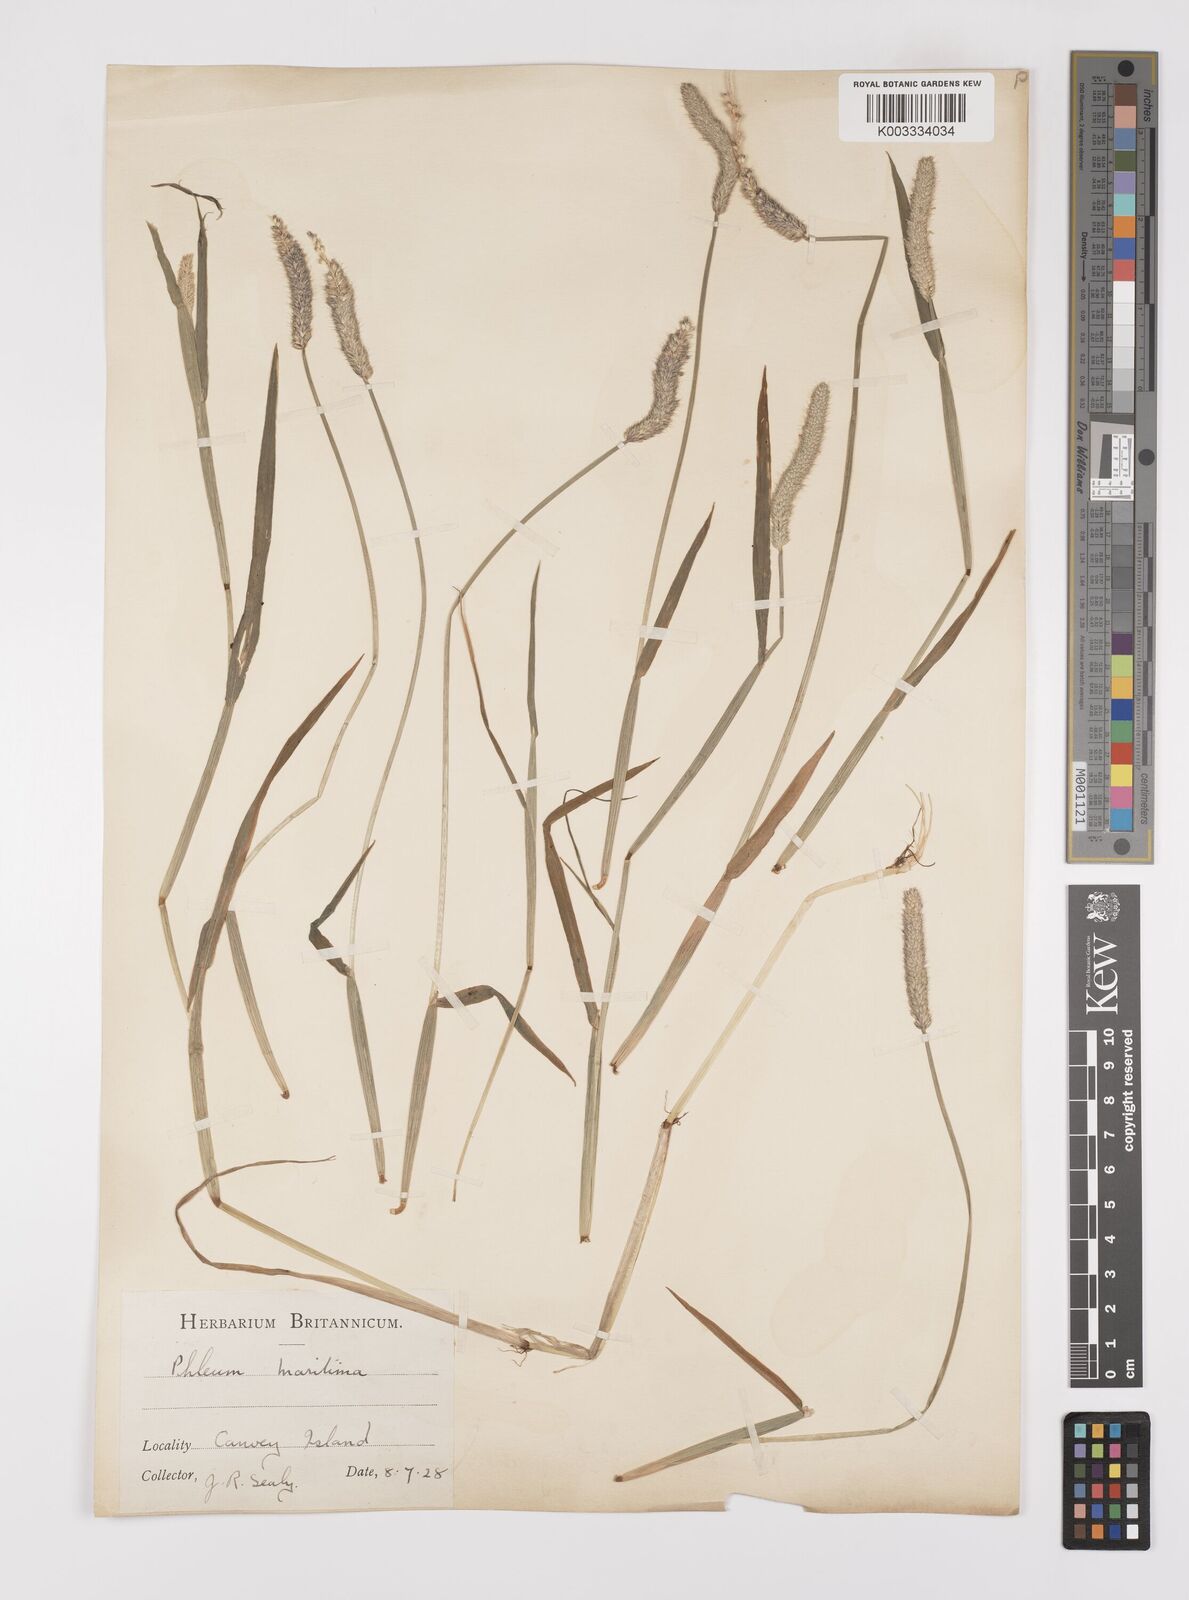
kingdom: Plantae
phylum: Tracheophyta
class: Liliopsida
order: Poales
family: Poaceae
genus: Alopecurus
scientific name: Alopecurus geniculatus
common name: Water foxtail
